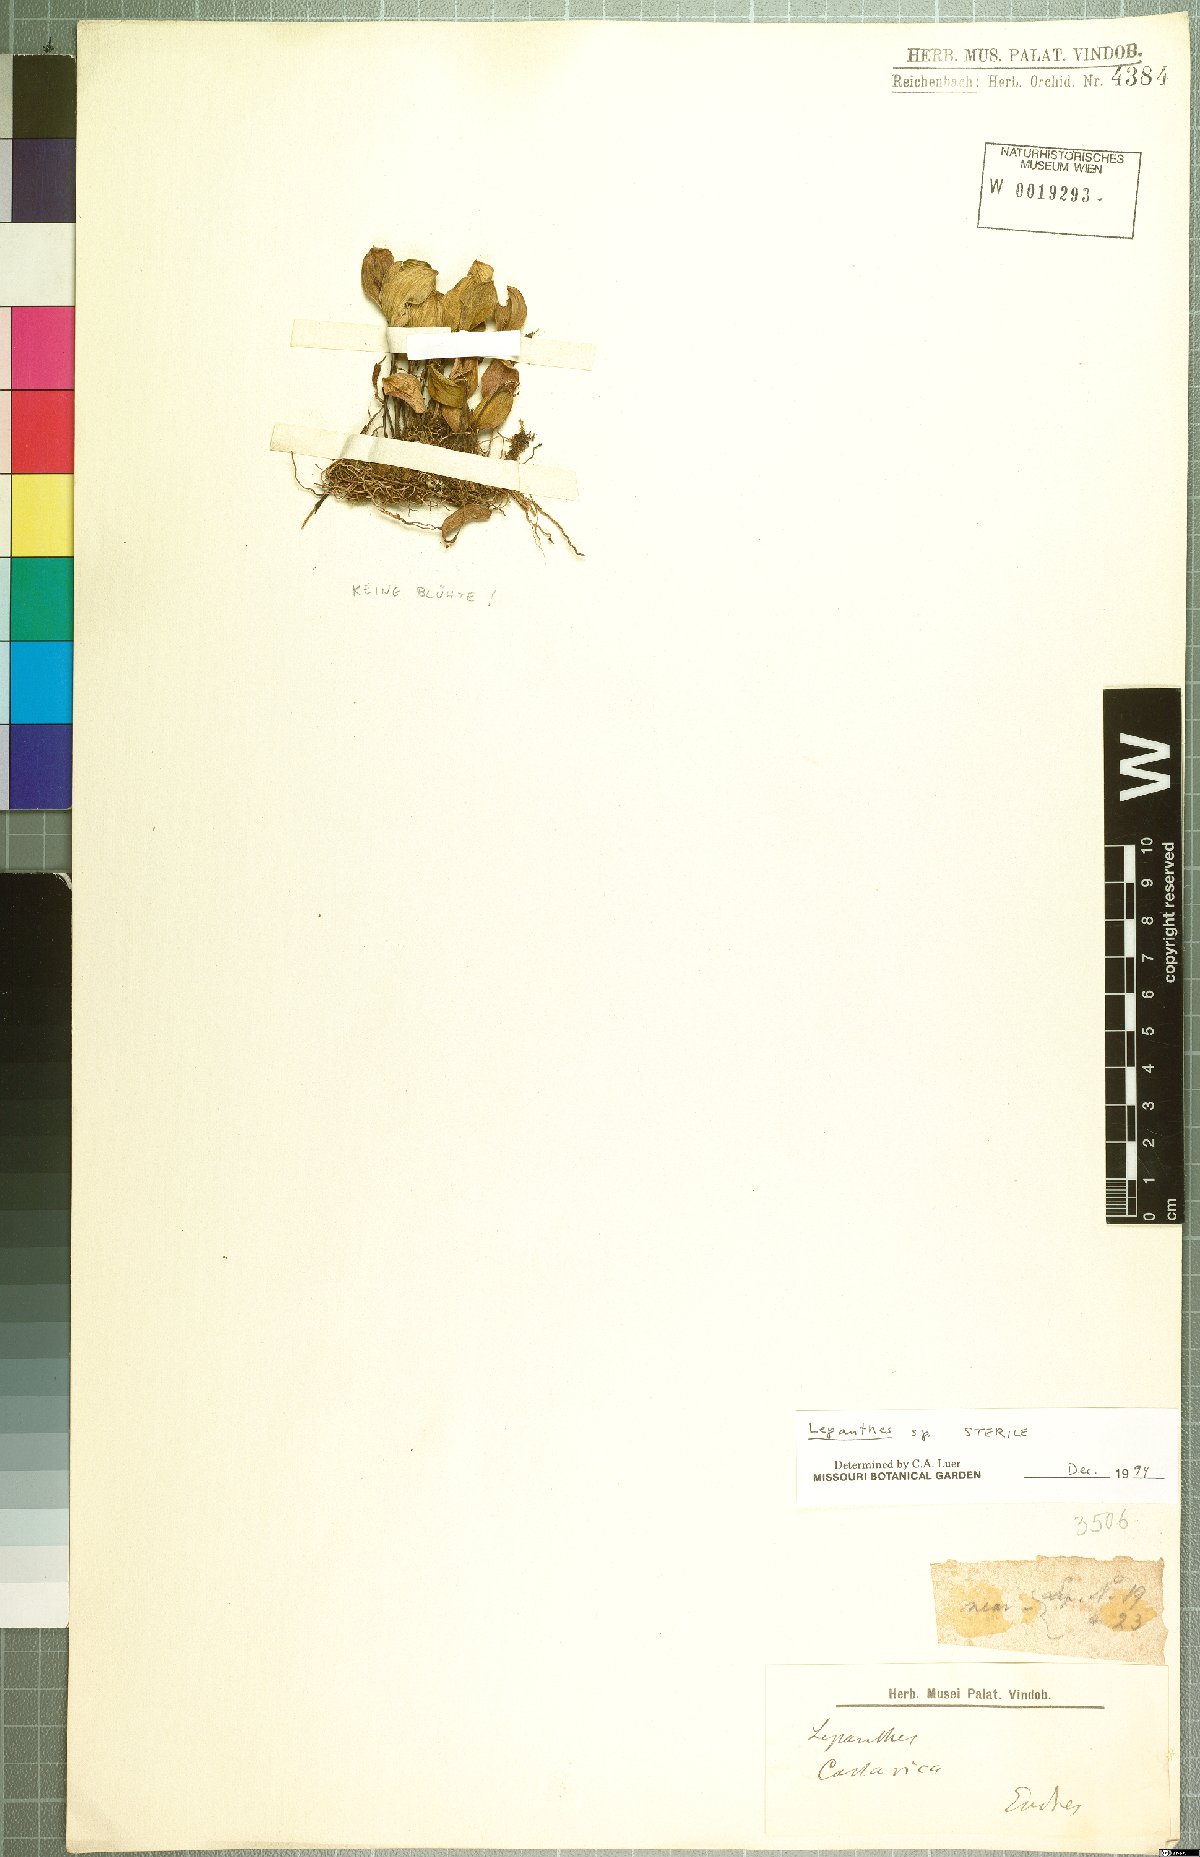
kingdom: Plantae
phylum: Tracheophyta
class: Liliopsida
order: Asparagales
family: Orchidaceae
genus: Lepanthes
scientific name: Lepanthes
